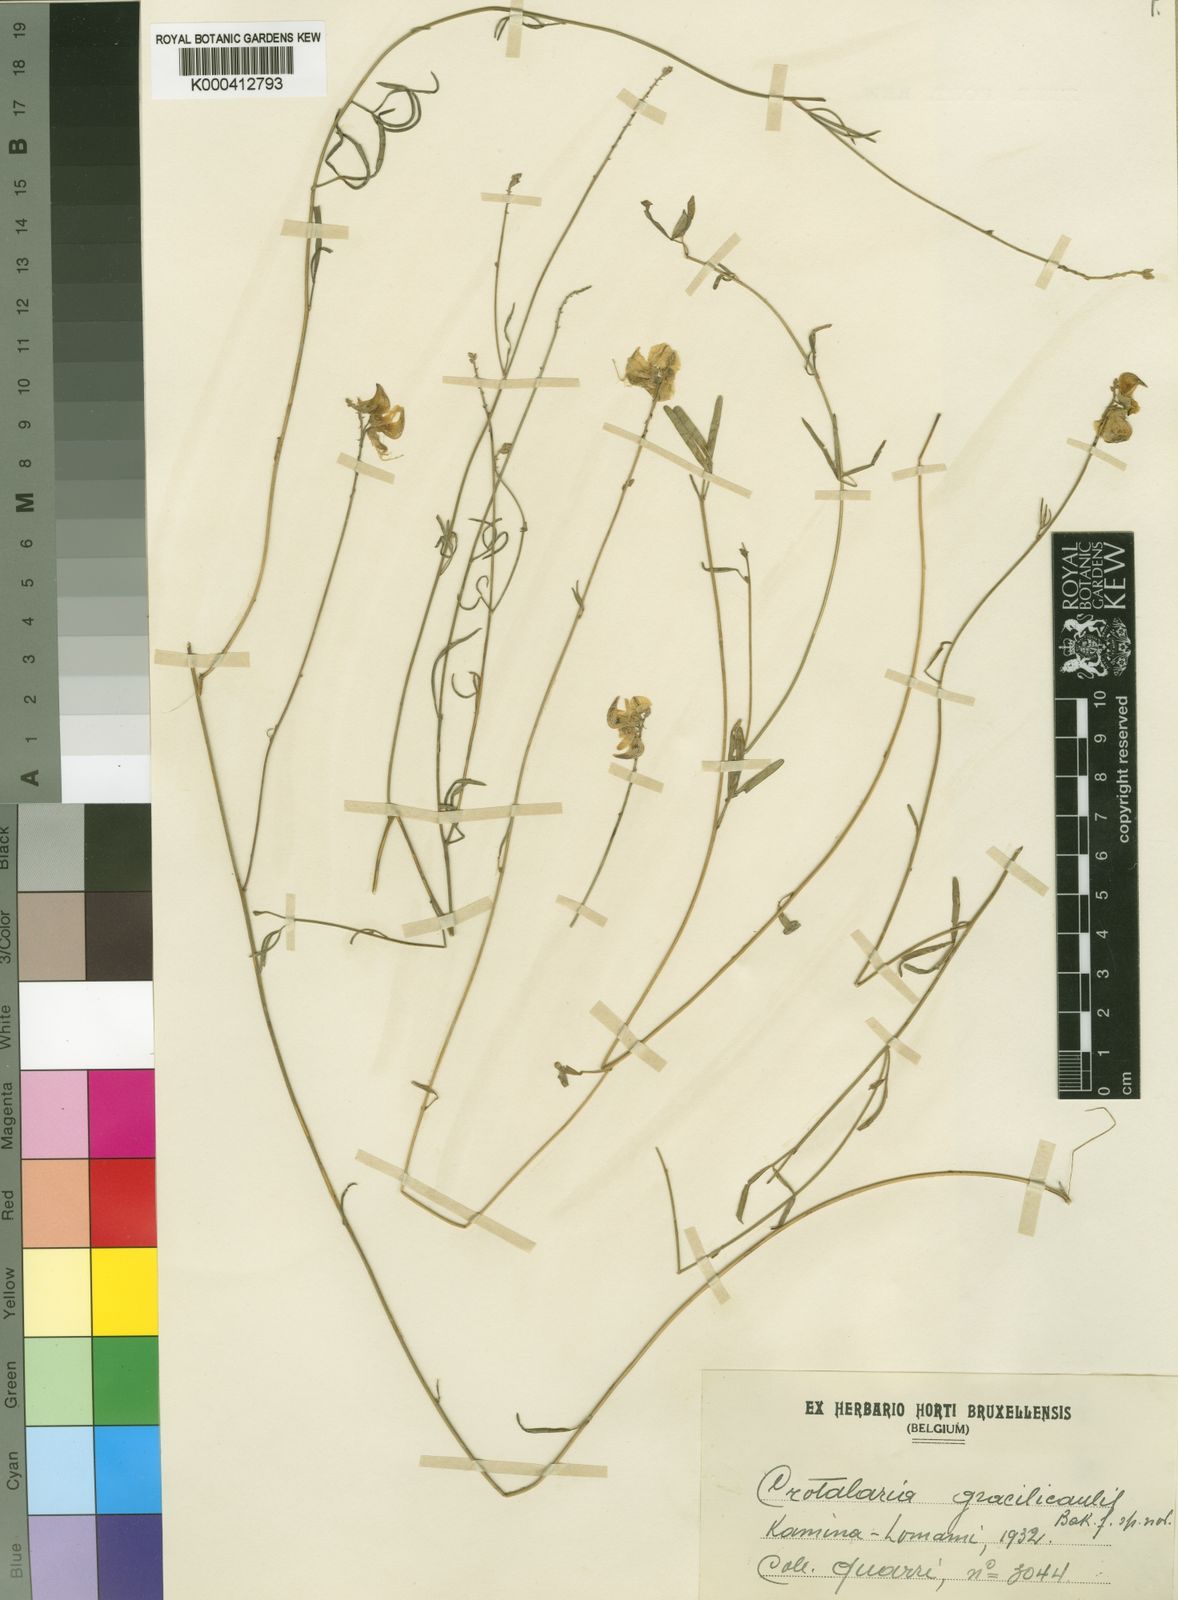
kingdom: Plantae
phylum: Tracheophyta
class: Magnoliopsida
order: Fabales
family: Fabaceae
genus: Crotalaria
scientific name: Crotalaria subcapitata
